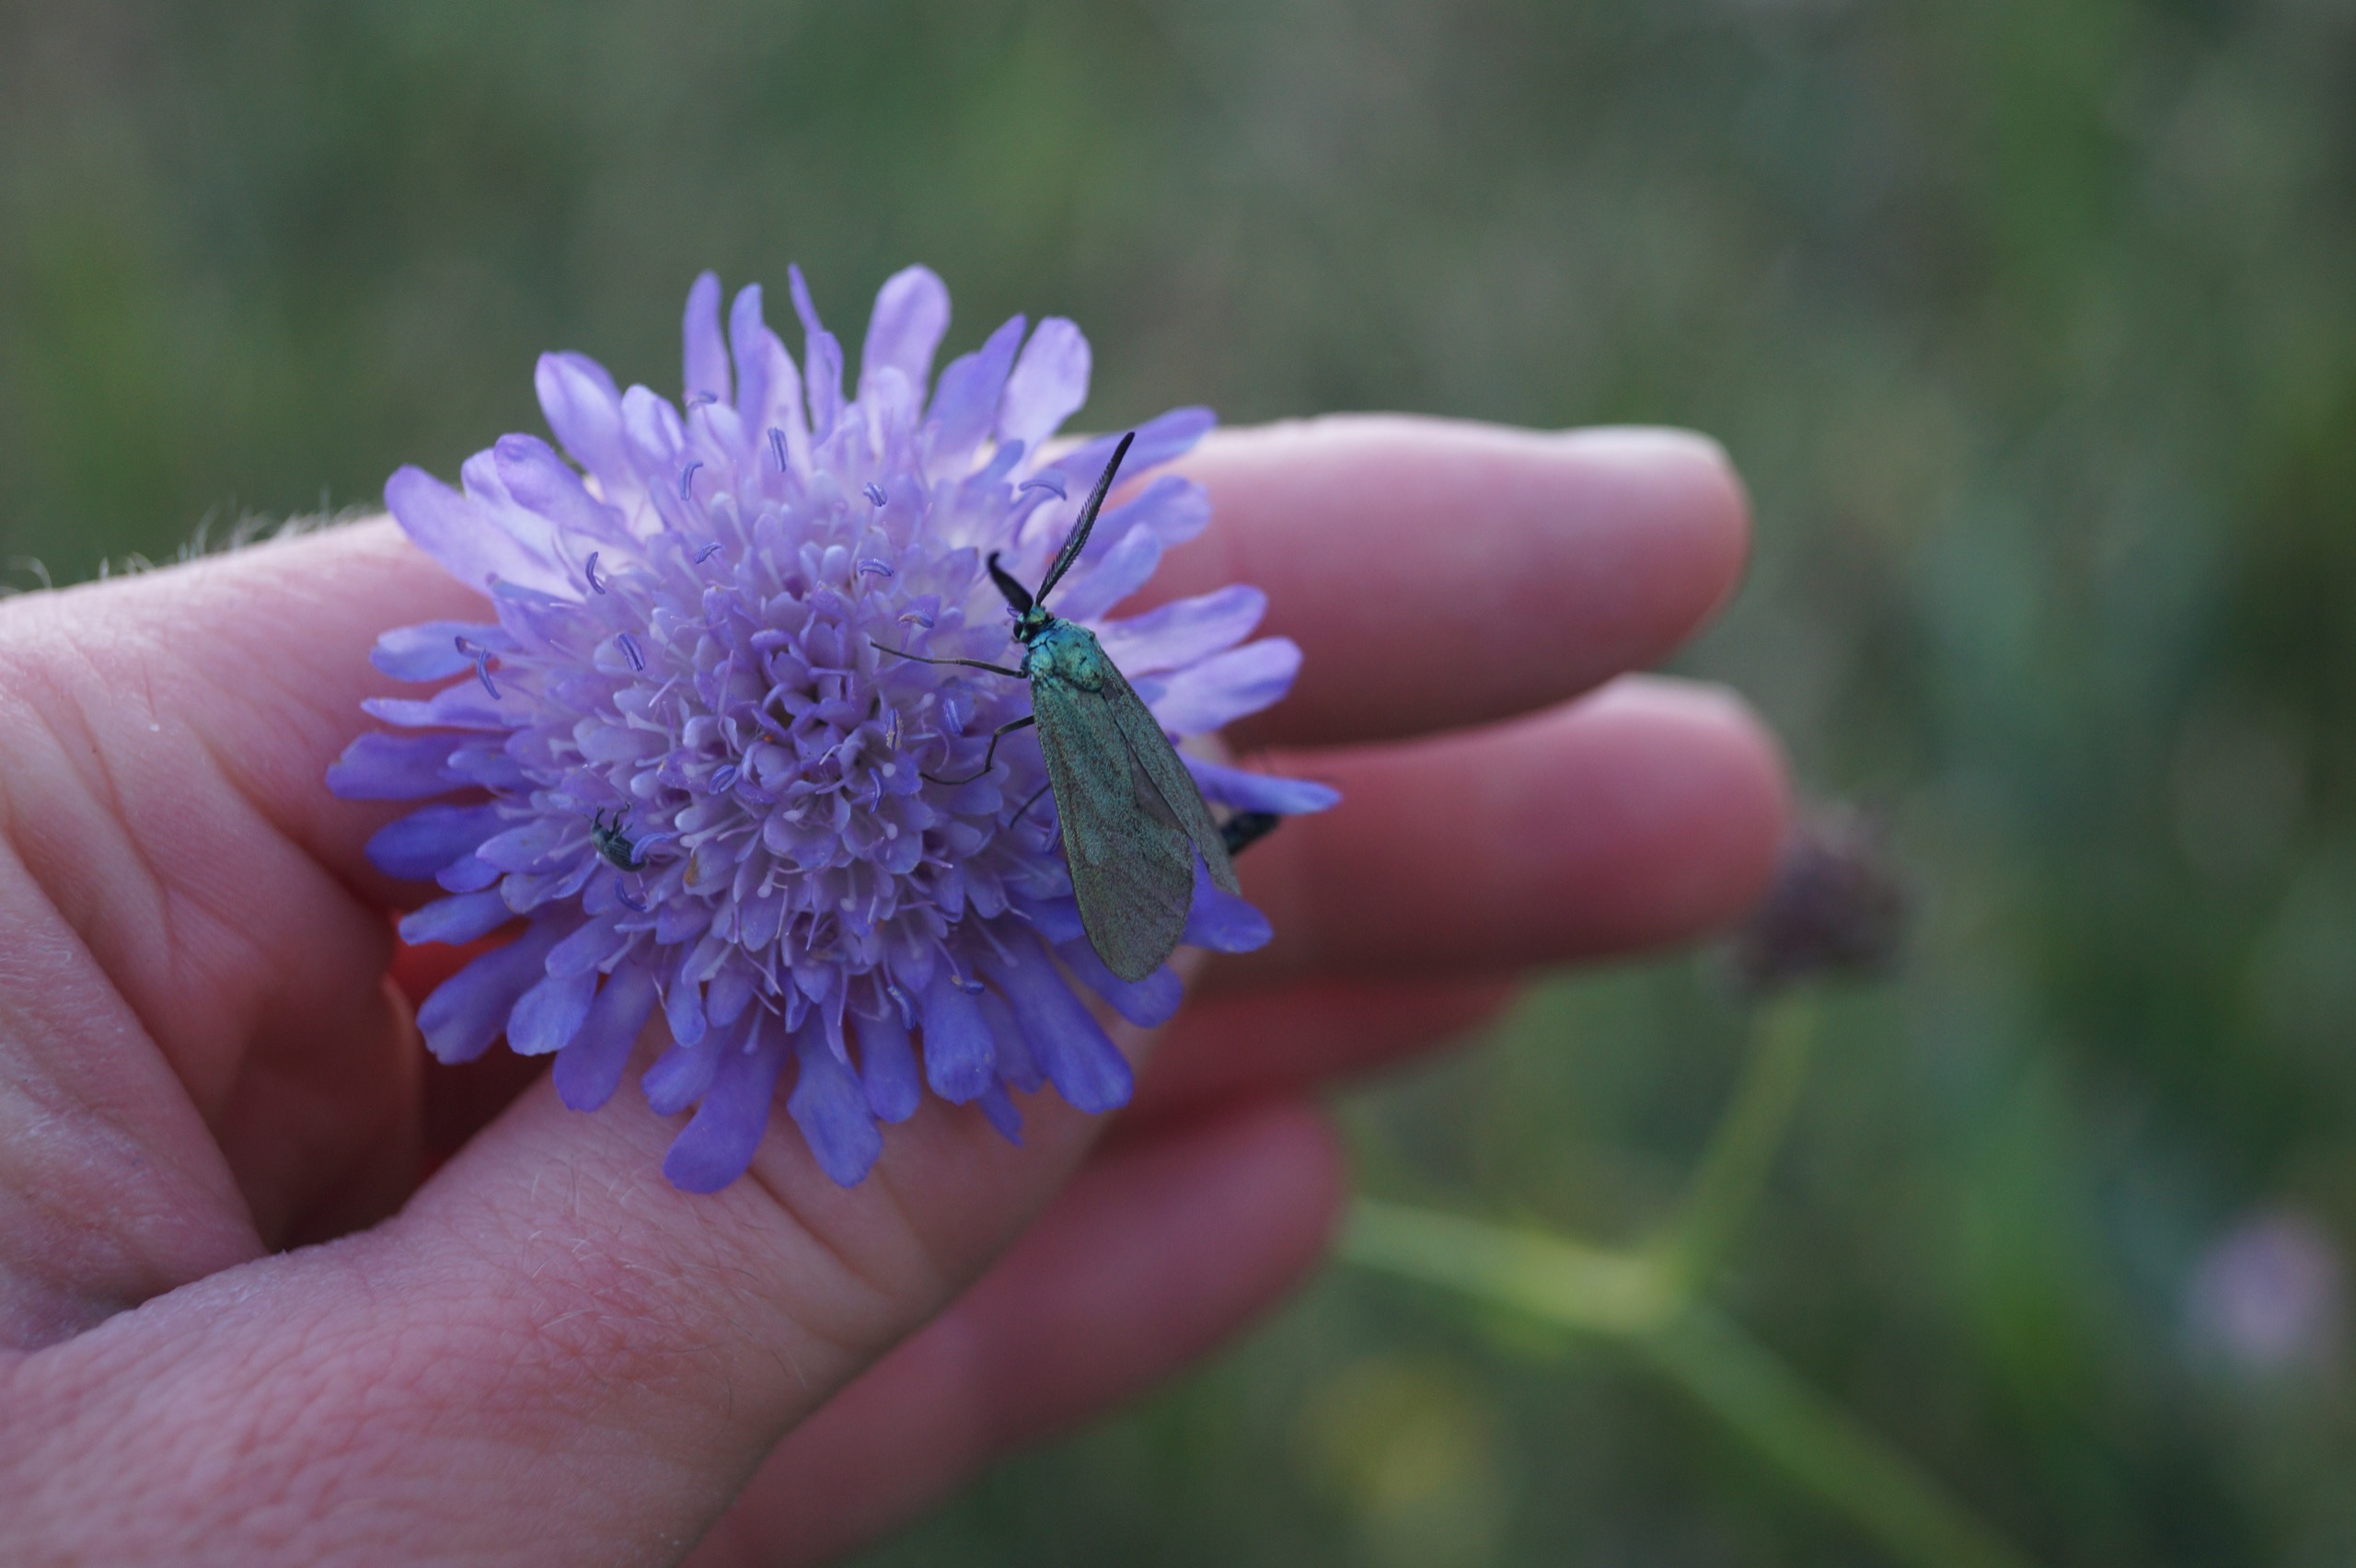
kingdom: Animalia
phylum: Arthropoda
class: Insecta
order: Lepidoptera
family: Zygaenidae
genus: Adscita
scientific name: Adscita statices
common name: Metalvinge
